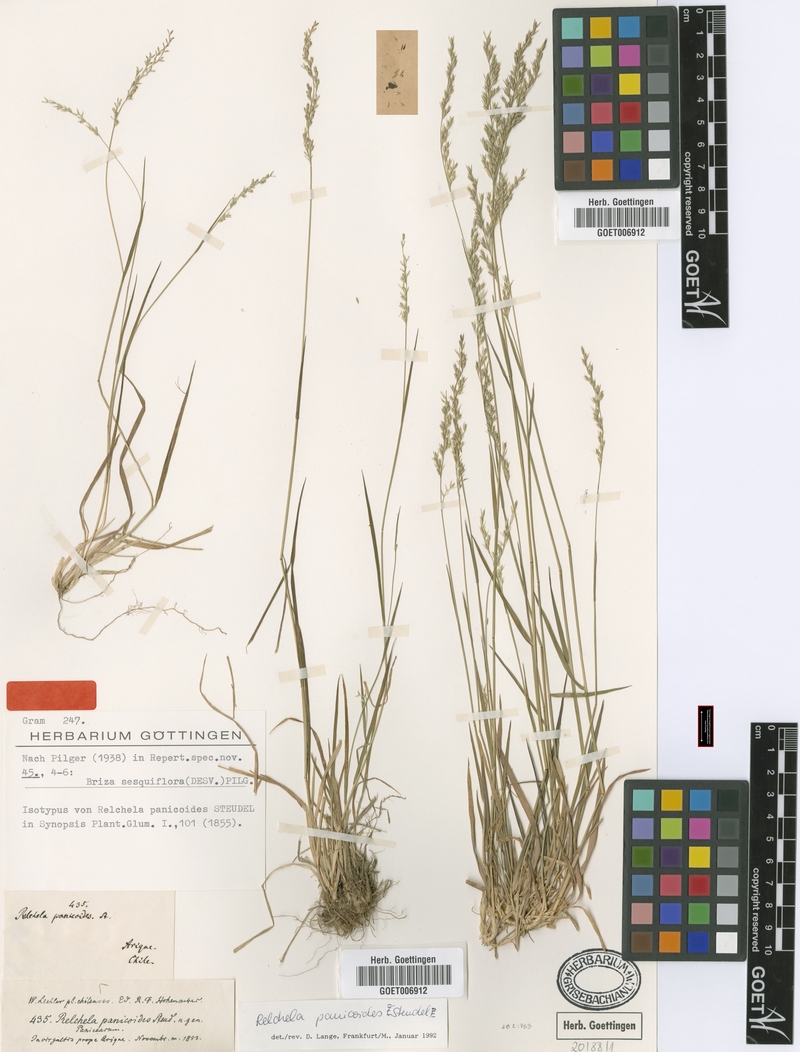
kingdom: Plantae
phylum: Tracheophyta
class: Liliopsida
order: Poales
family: Poaceae
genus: Relchela
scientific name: Relchela panicoides
